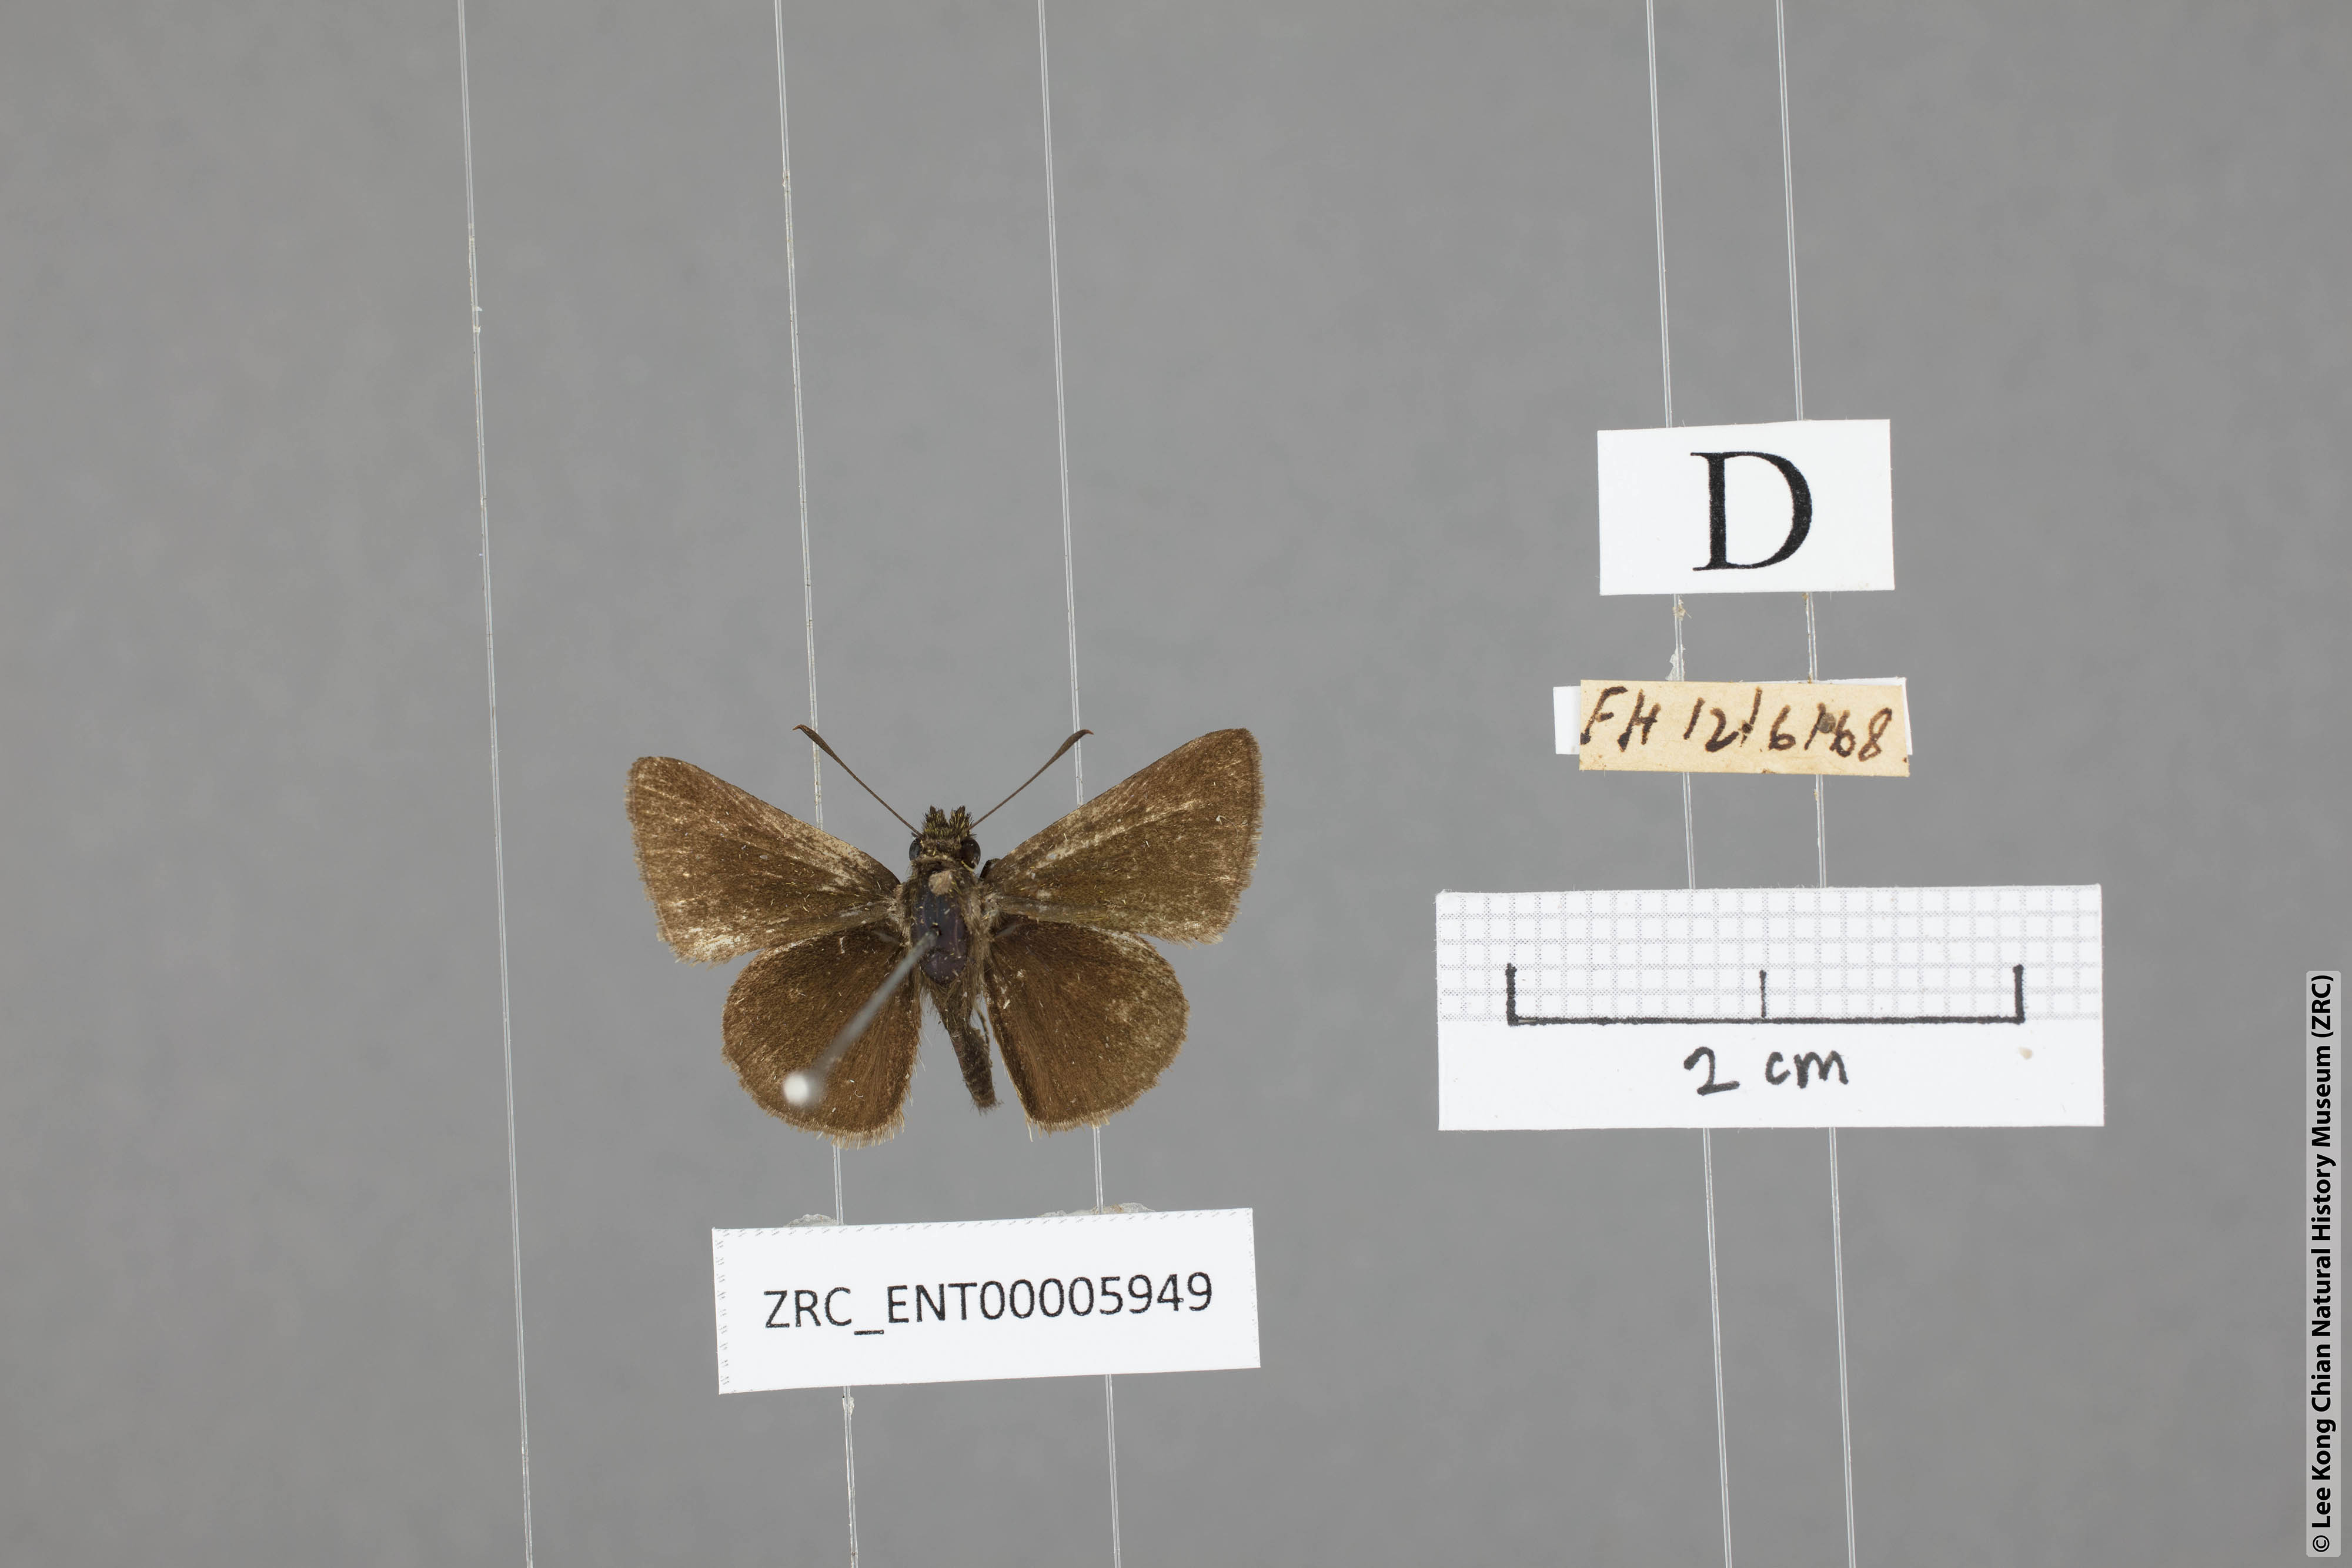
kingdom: Animalia
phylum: Arthropoda
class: Insecta
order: Lepidoptera
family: Hesperiidae
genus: Aeromachus
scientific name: Aeromachus jhora
